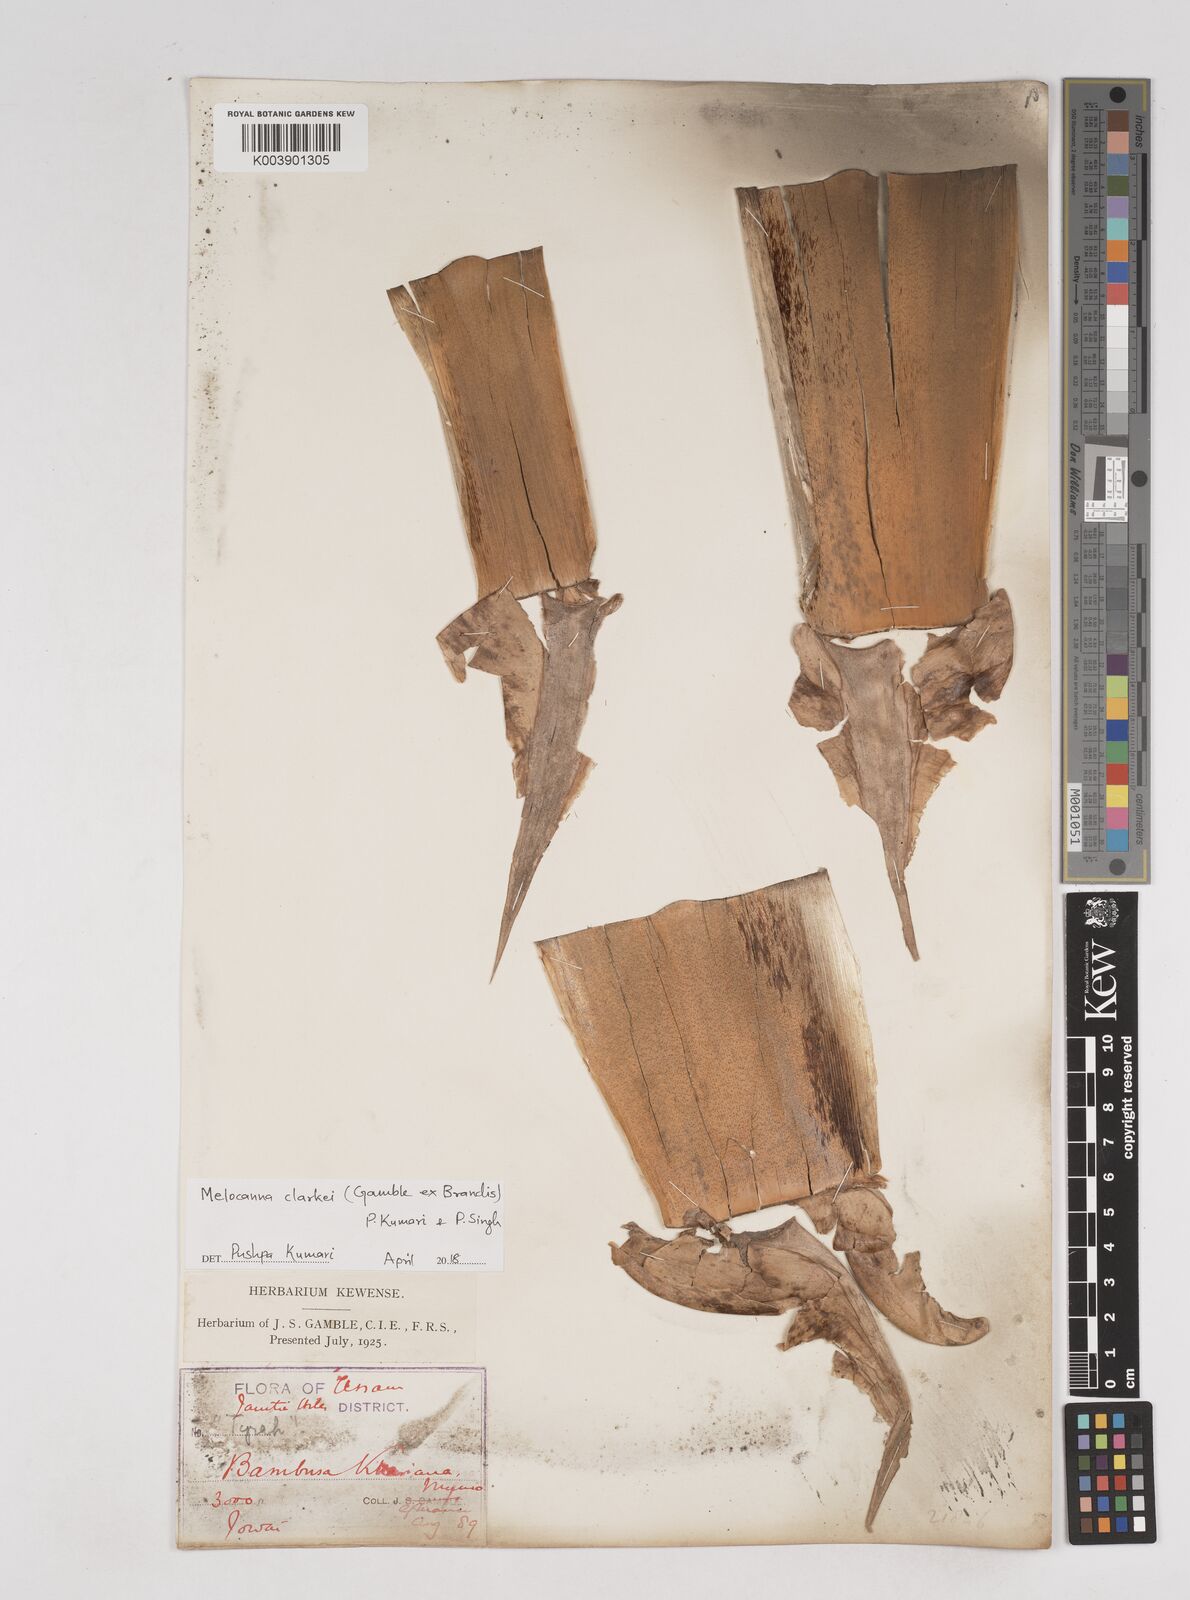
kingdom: Plantae
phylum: Tracheophyta
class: Liliopsida
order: Poales
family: Poaceae
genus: Melocanna
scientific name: Melocanna clarkei
